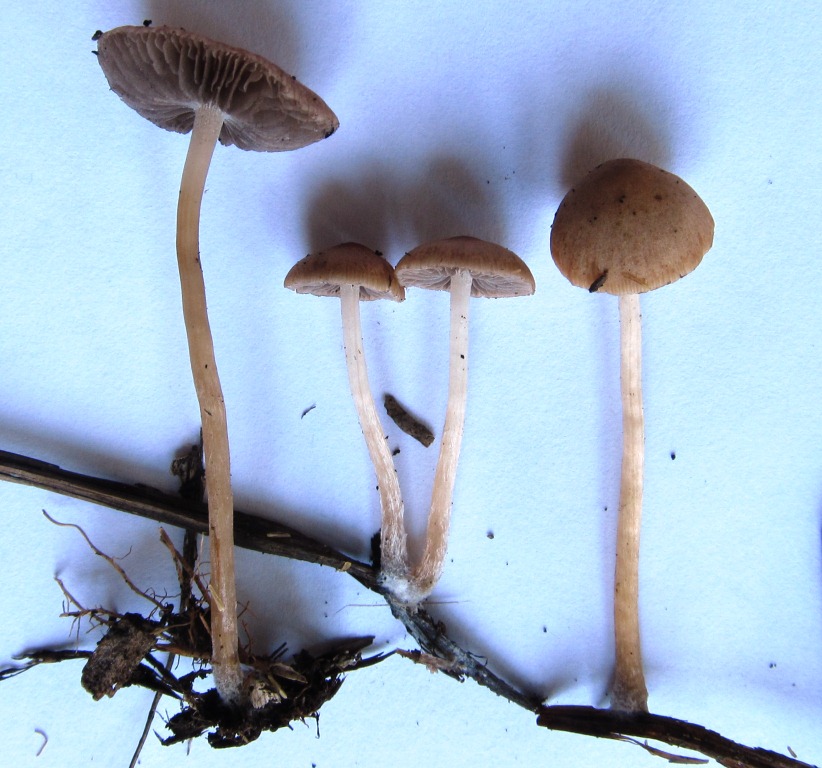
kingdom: Fungi
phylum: Basidiomycota
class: Agaricomycetes
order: Agaricales
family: Psathyrellaceae
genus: Psathyrella
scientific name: Psathyrella rubiginosa
